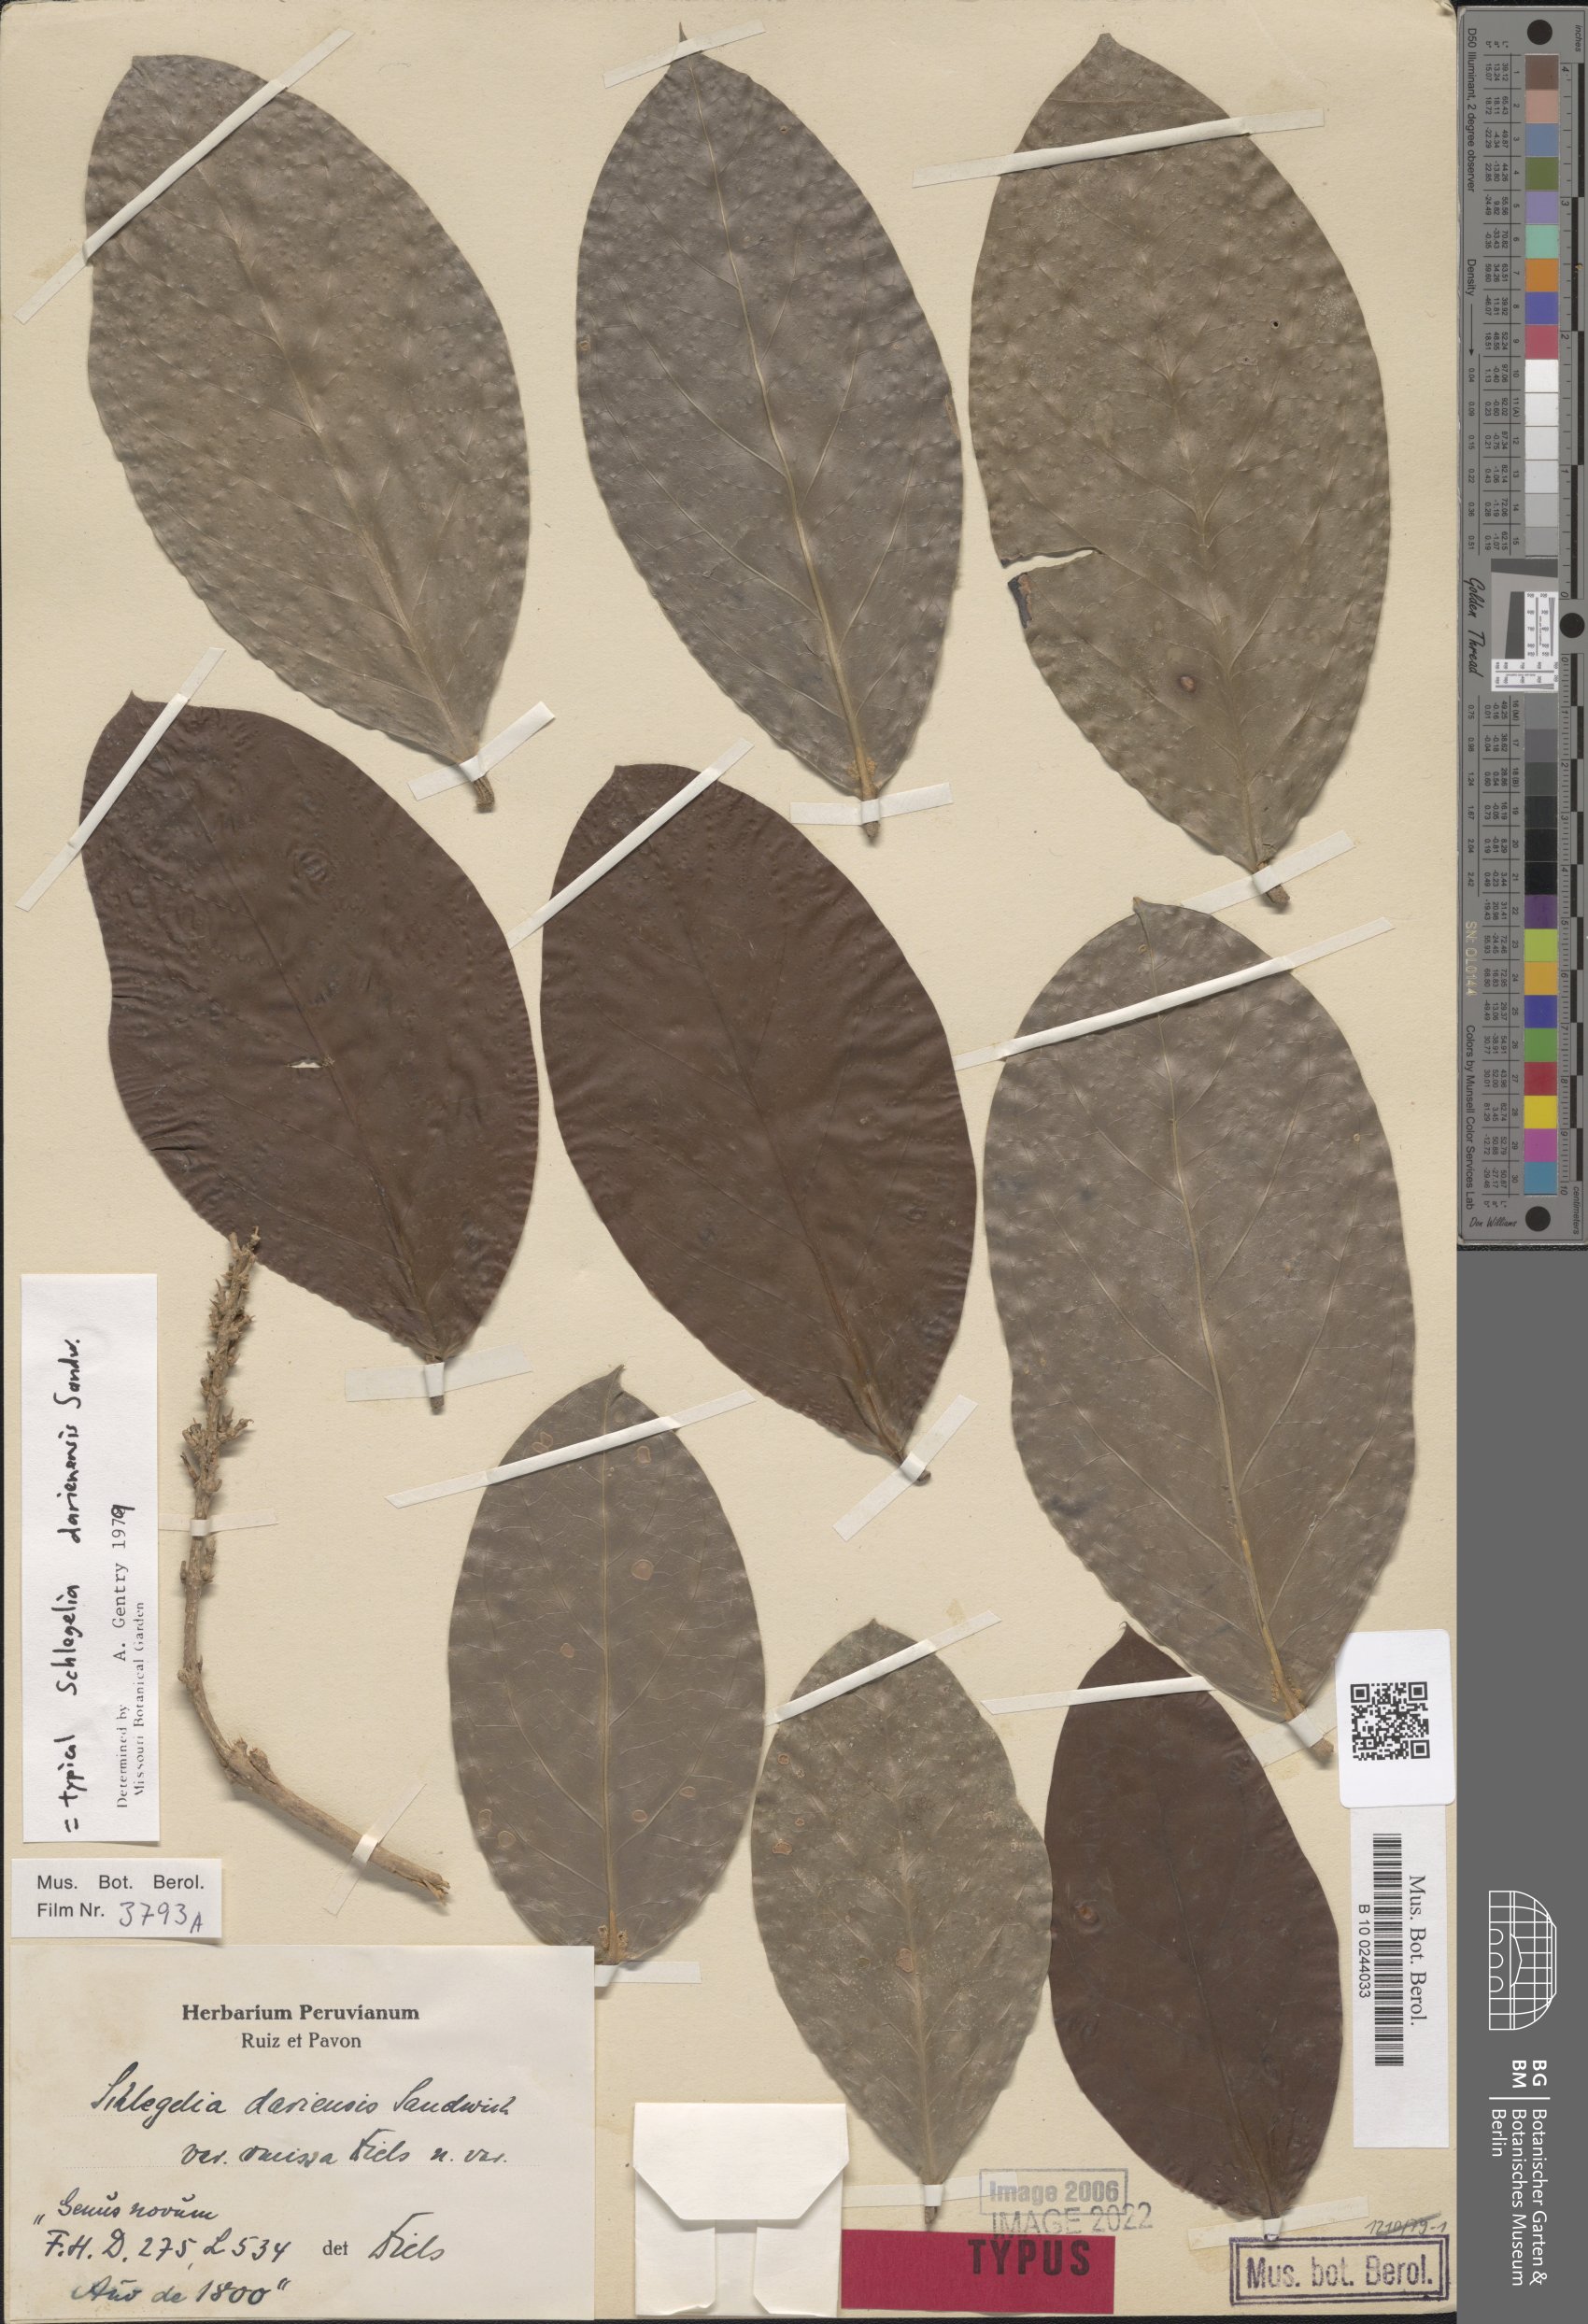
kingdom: Plantae
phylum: Tracheophyta
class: Magnoliopsida
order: Lamiales
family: Schlegeliaceae
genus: Schlegelia
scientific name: Schlegelia darienensis
